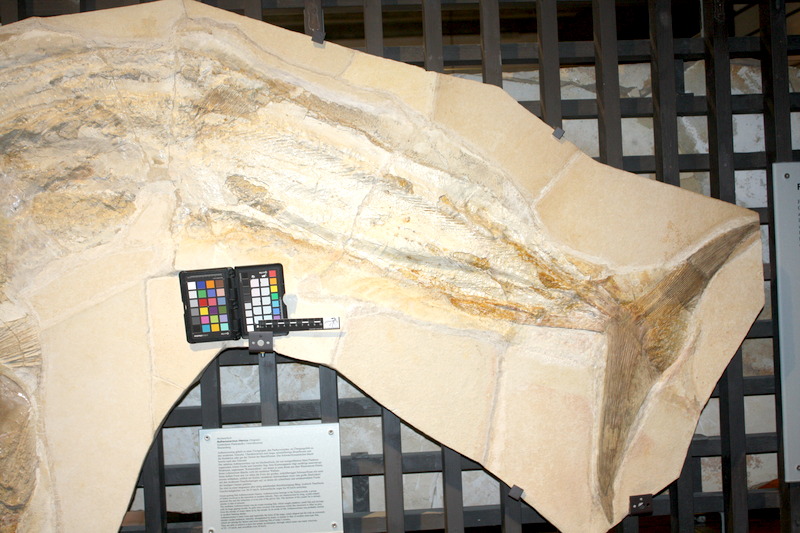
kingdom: Animalia
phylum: Chordata
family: Pachycormidae
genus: Asthenocormus
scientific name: Asthenocormus titanius
